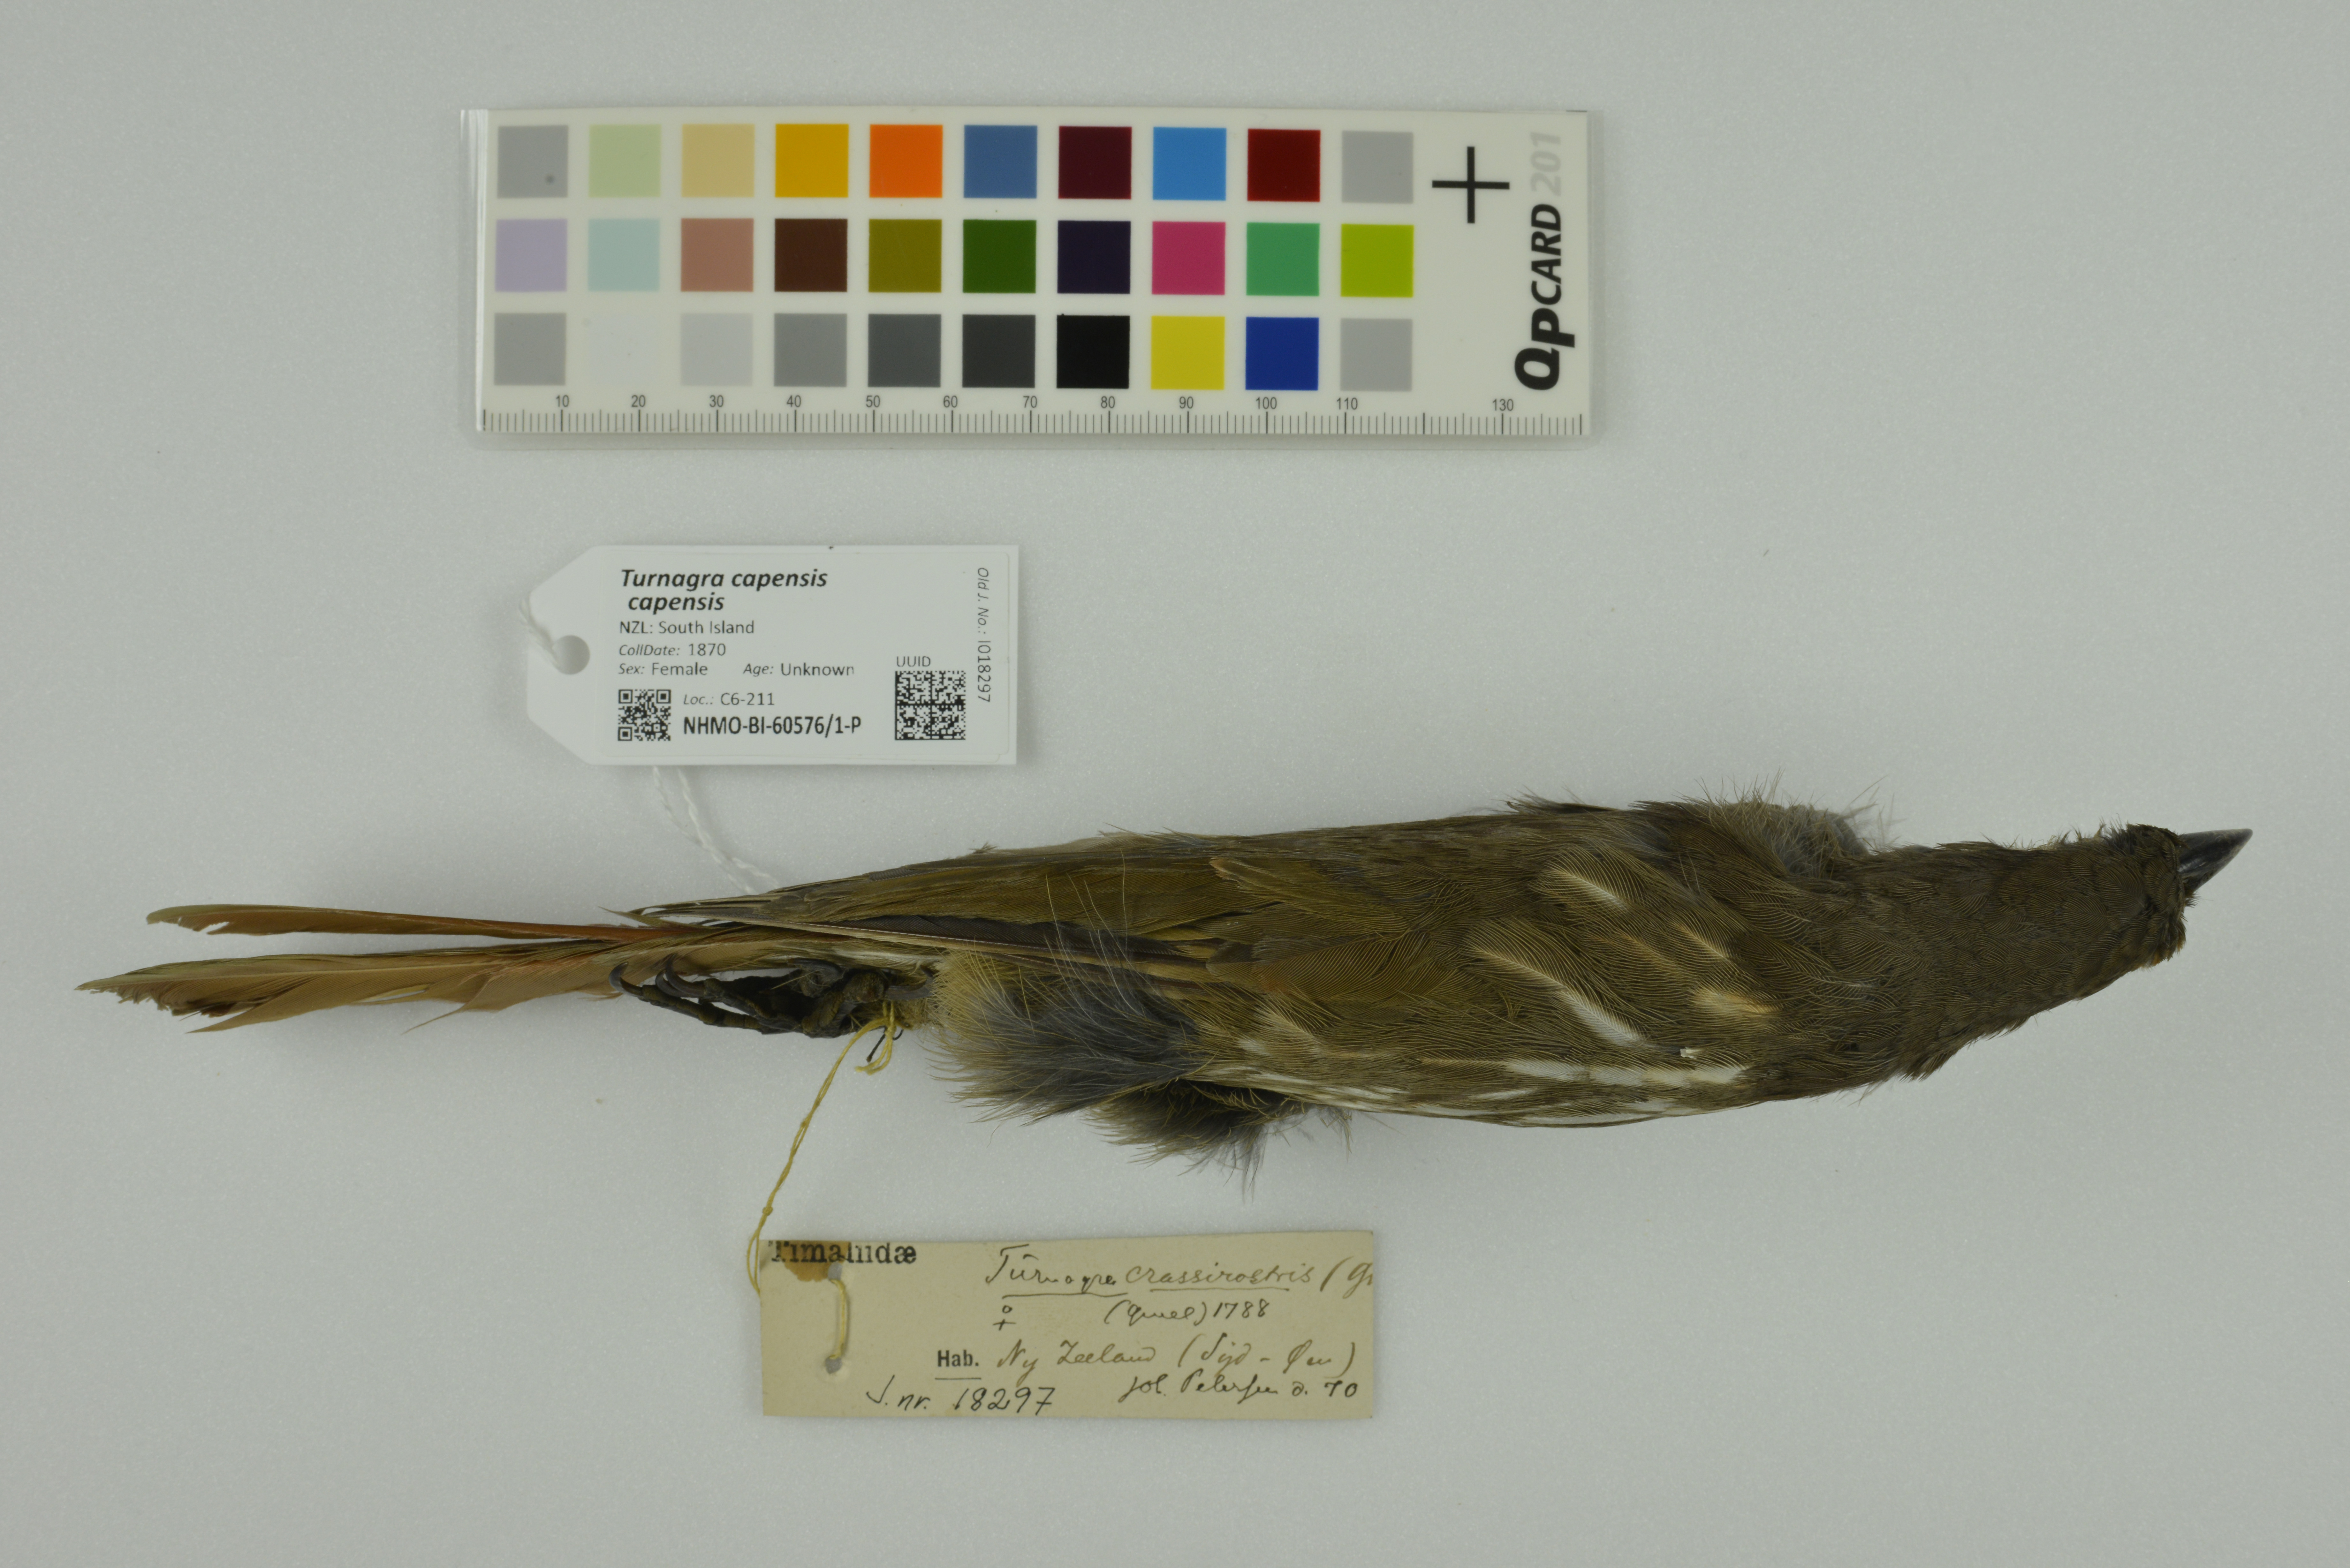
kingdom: Animalia
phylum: Chordata
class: Aves
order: Passeriformes
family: Ptilonorhynchidae
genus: Turnagra
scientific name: Turnagra capensis
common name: South island piopio
